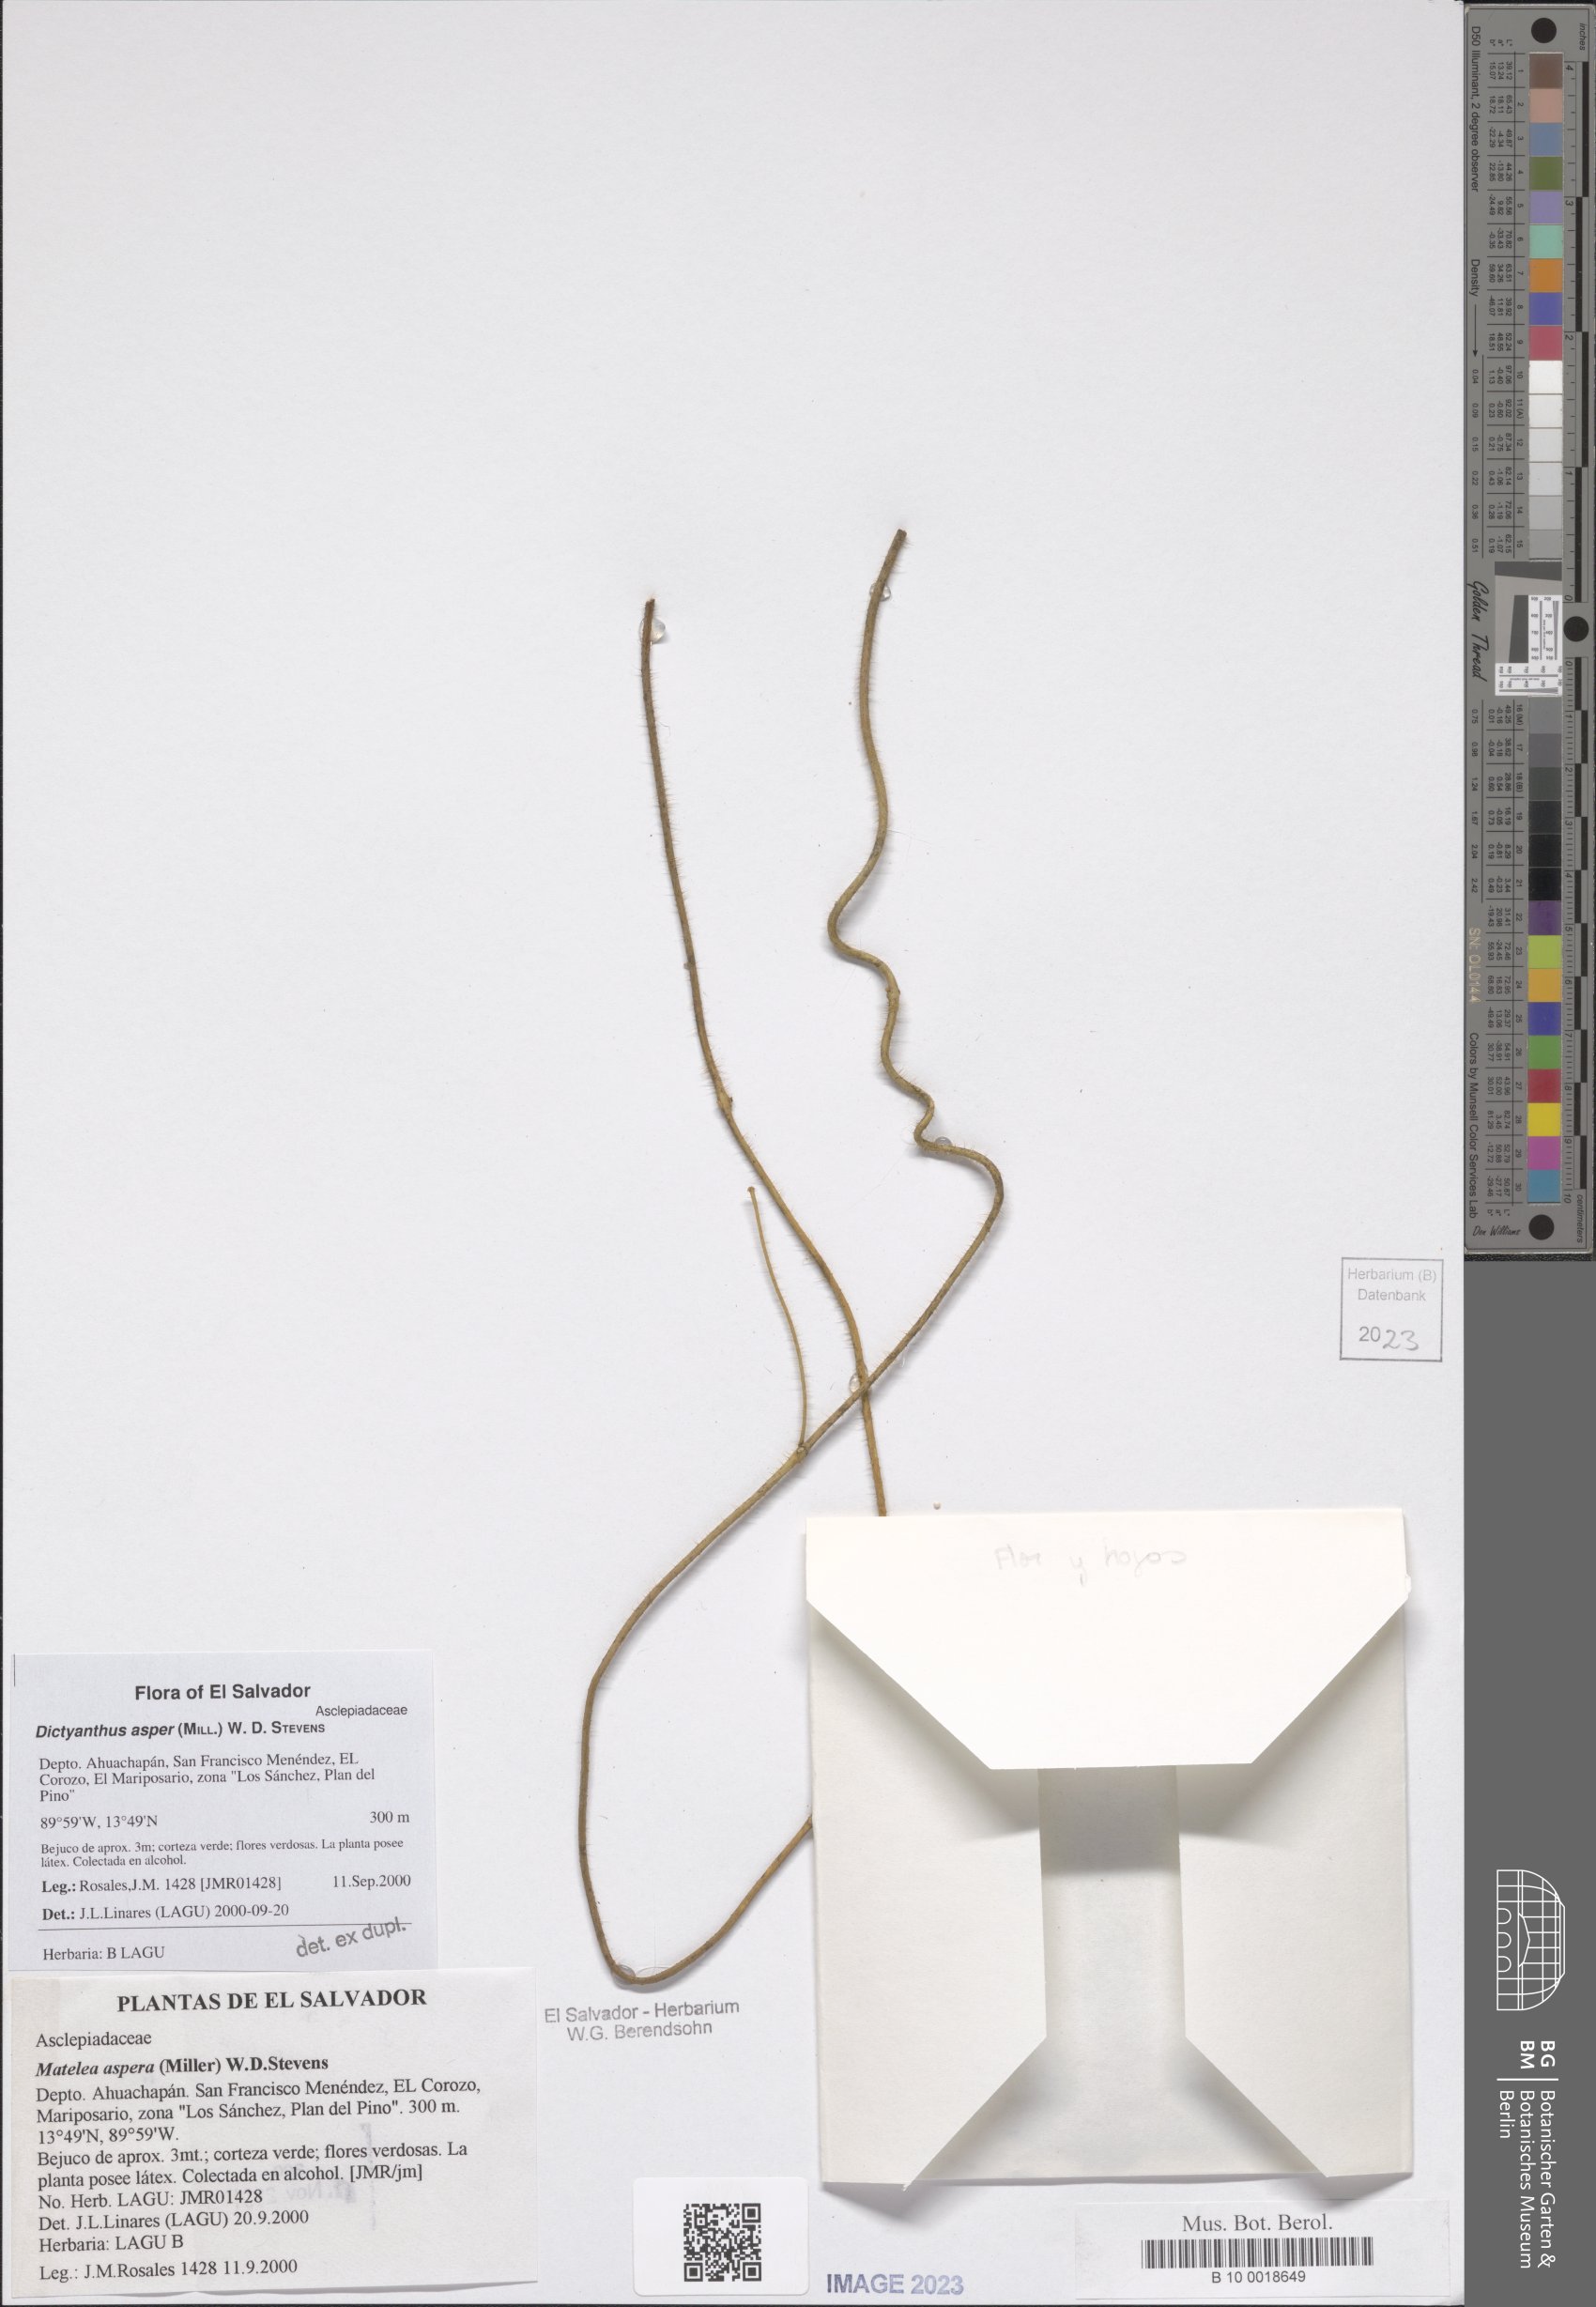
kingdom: Plantae
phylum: Tracheophyta
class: Magnoliopsida
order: Gentianales
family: Apocynaceae
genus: Dictyanthus
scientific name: Dictyanthus asper
